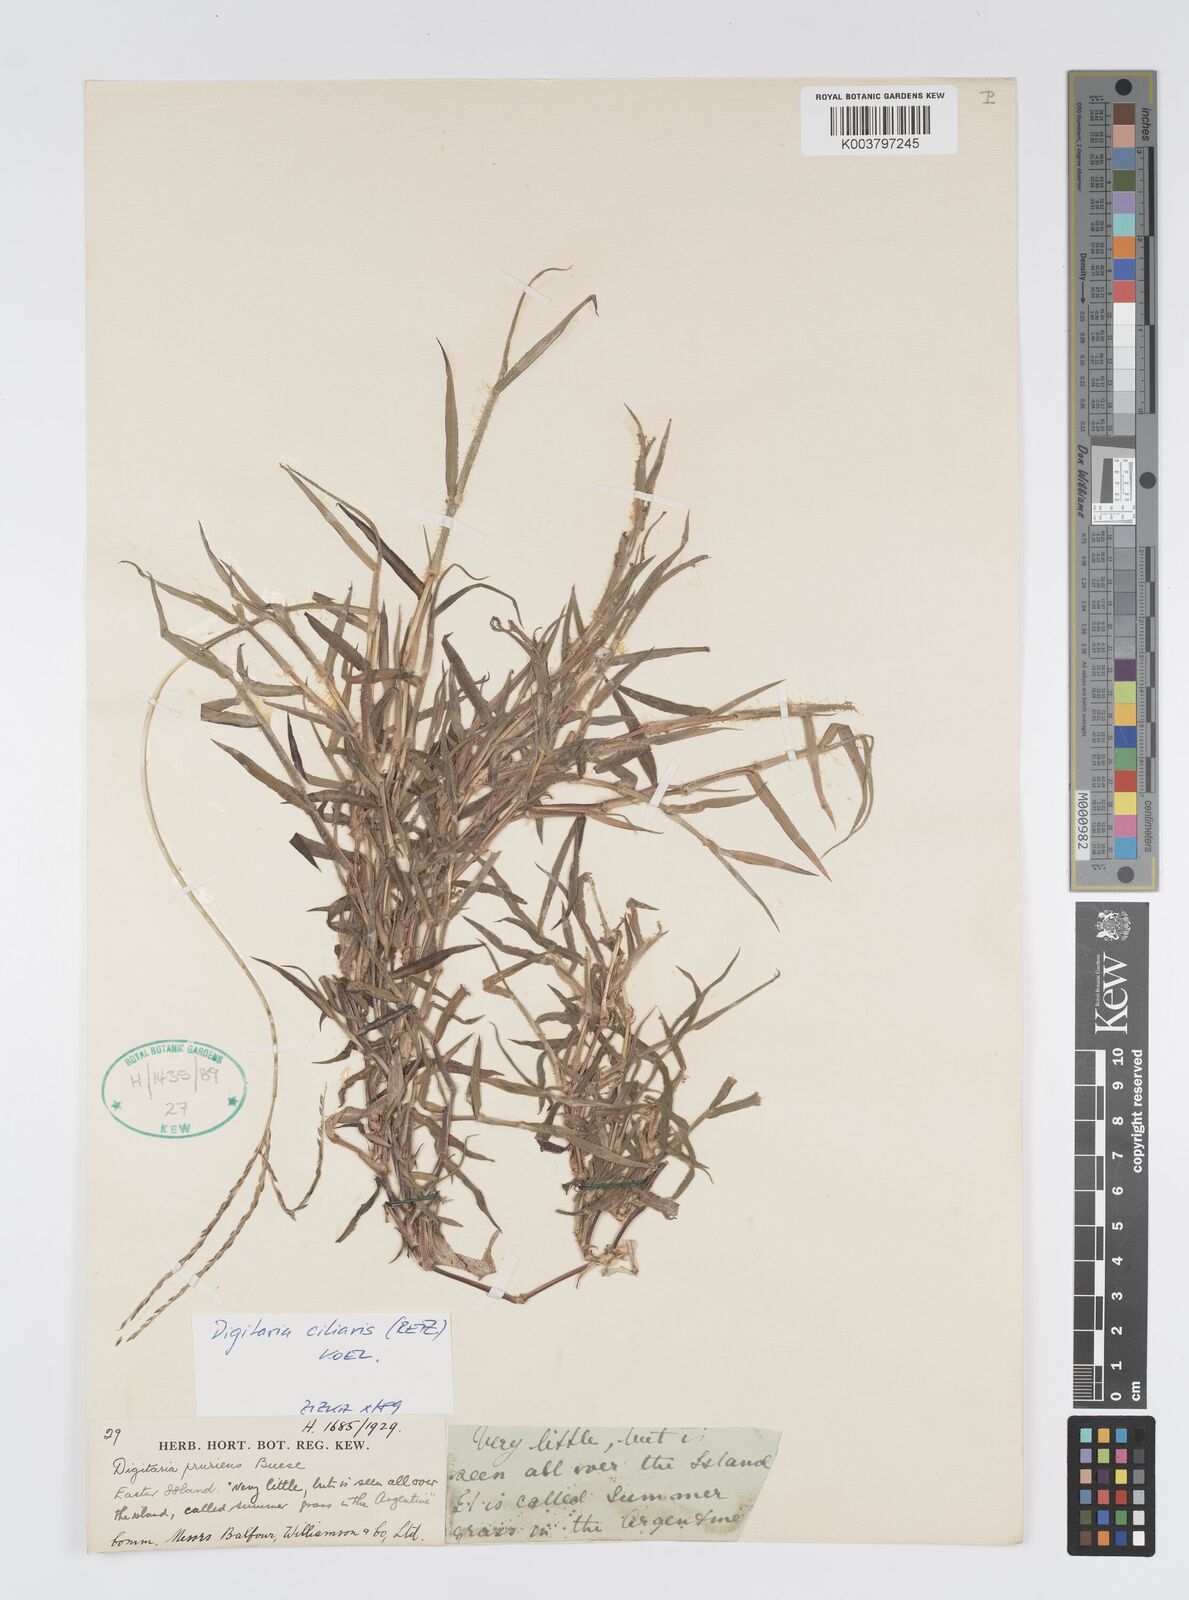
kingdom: Plantae
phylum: Tracheophyta
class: Liliopsida
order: Poales
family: Poaceae
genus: Digitaria
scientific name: Digitaria ciliaris
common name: Tropical finger-grass
